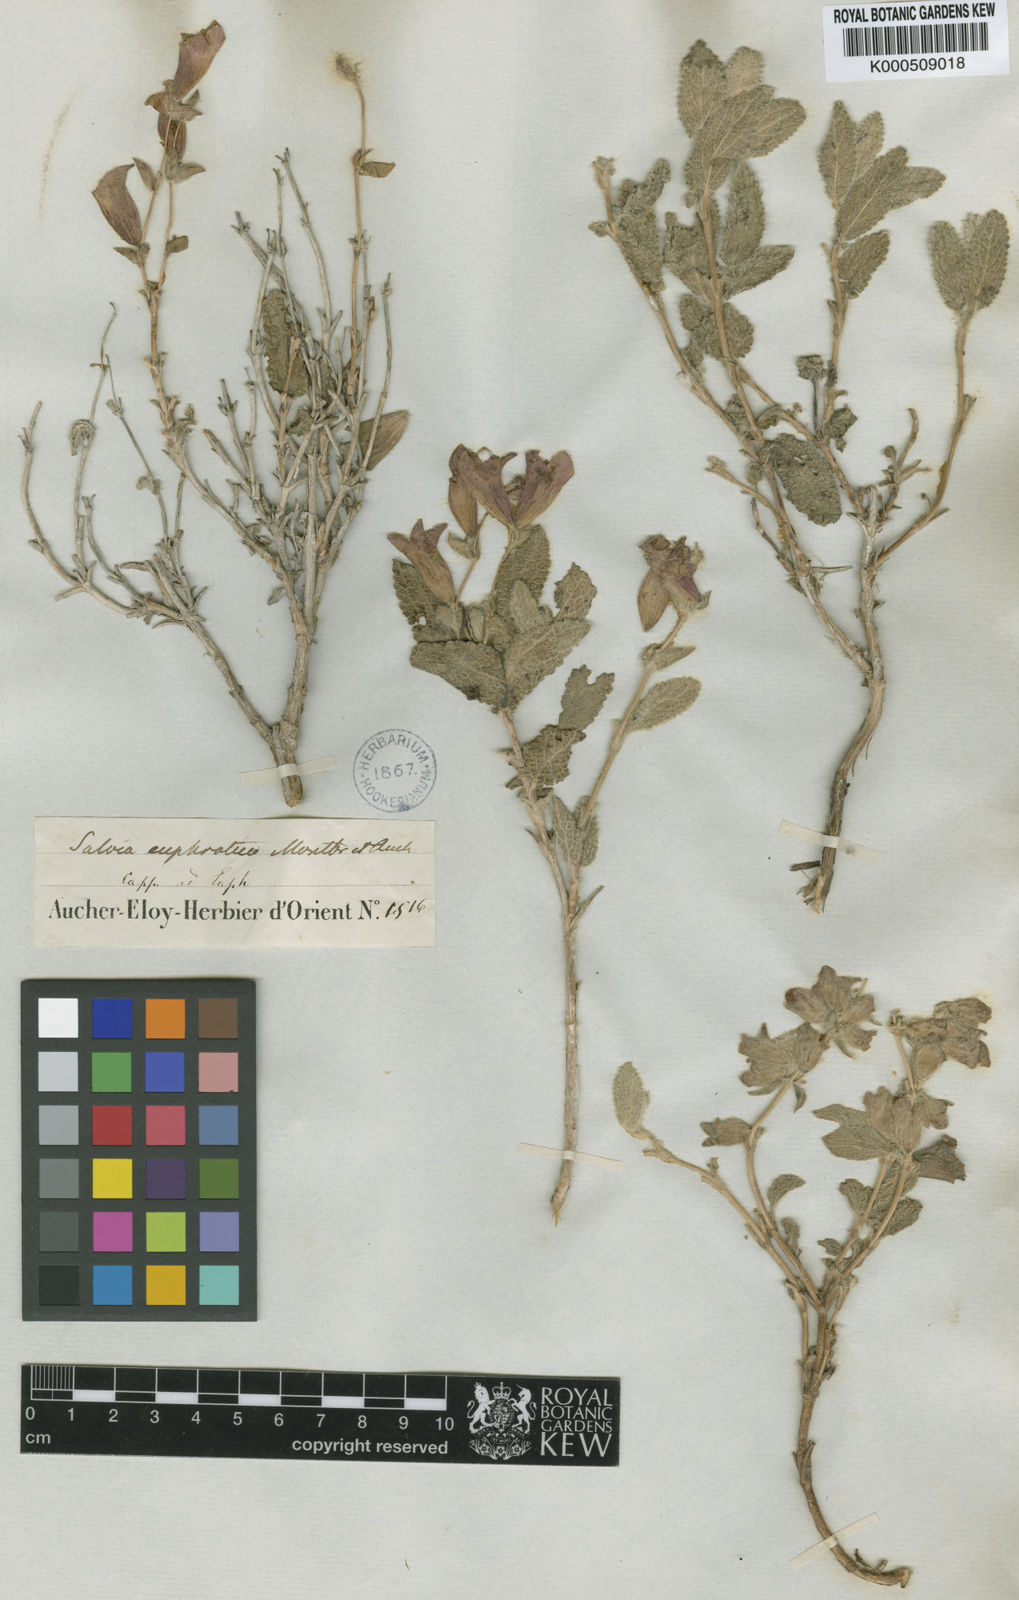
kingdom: Plantae
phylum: Tracheophyta
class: Magnoliopsida
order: Lamiales
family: Lamiaceae
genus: Salvia
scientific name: Salvia euphratica
